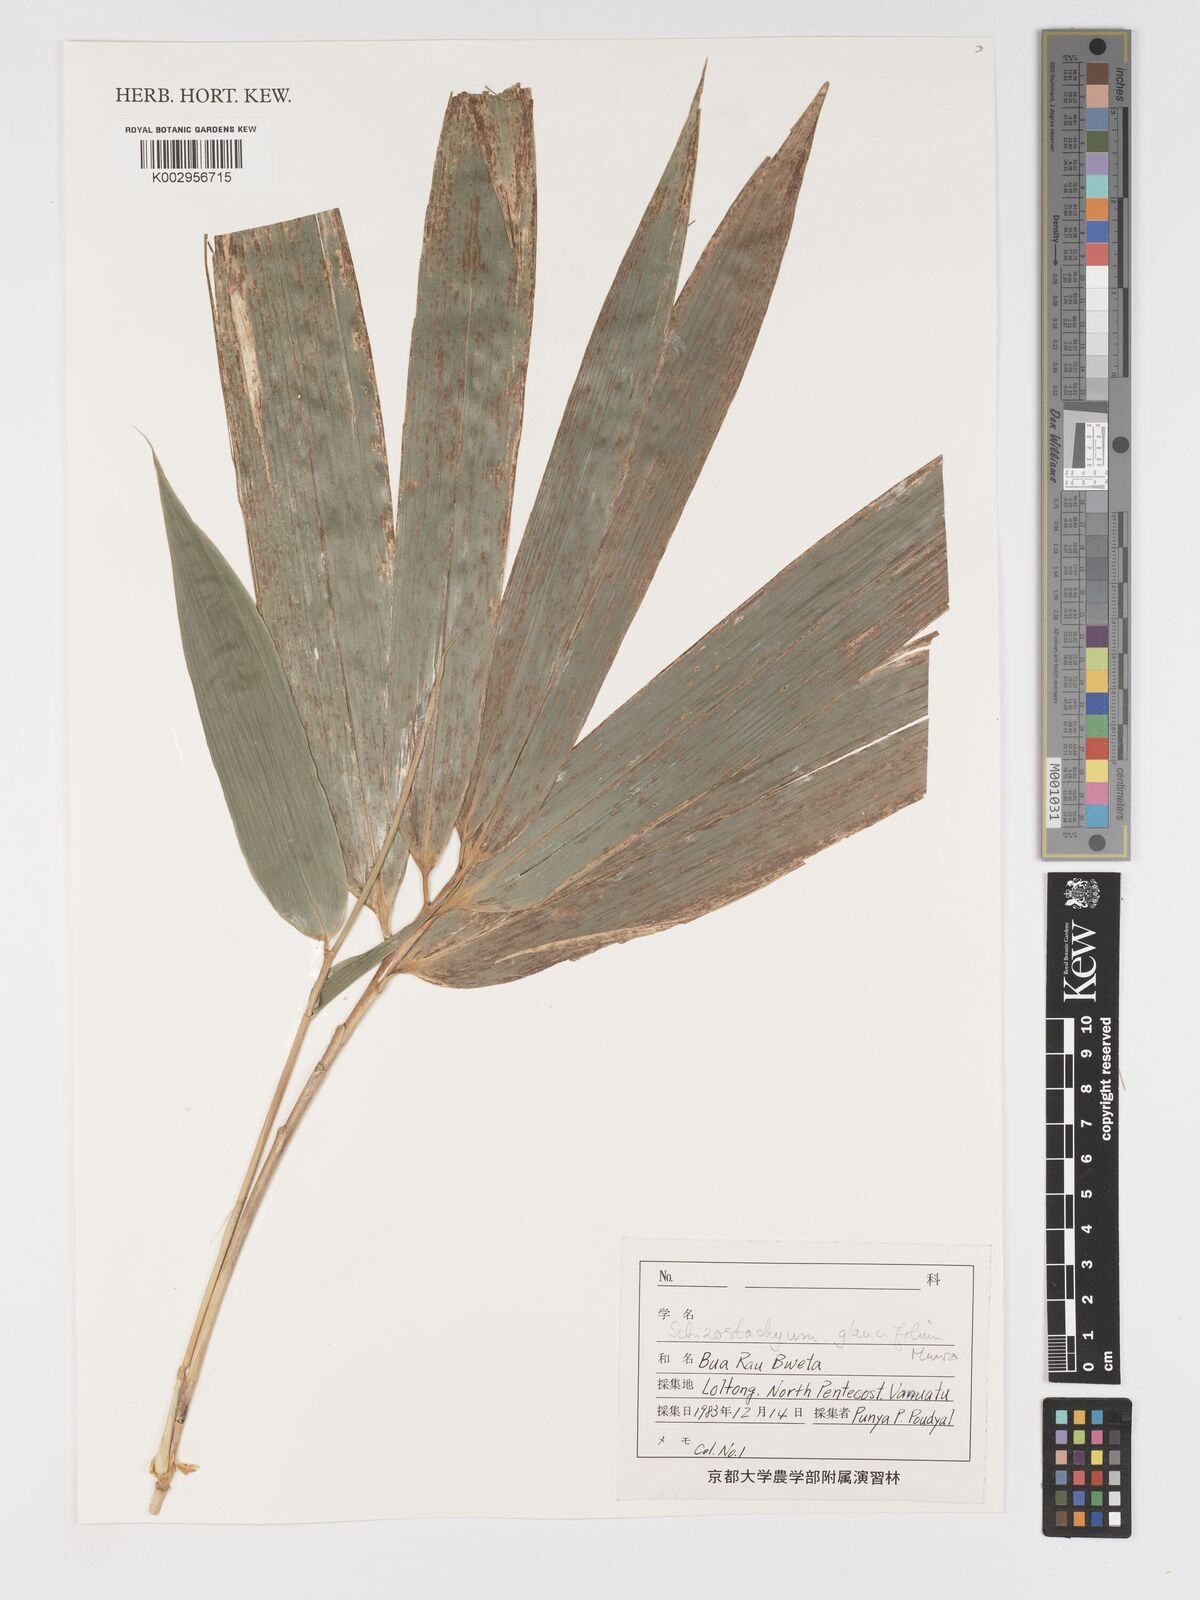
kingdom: Plantae
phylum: Tracheophyta
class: Liliopsida
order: Poales
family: Poaceae
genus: Schizostachyum
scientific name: Schizostachyum
